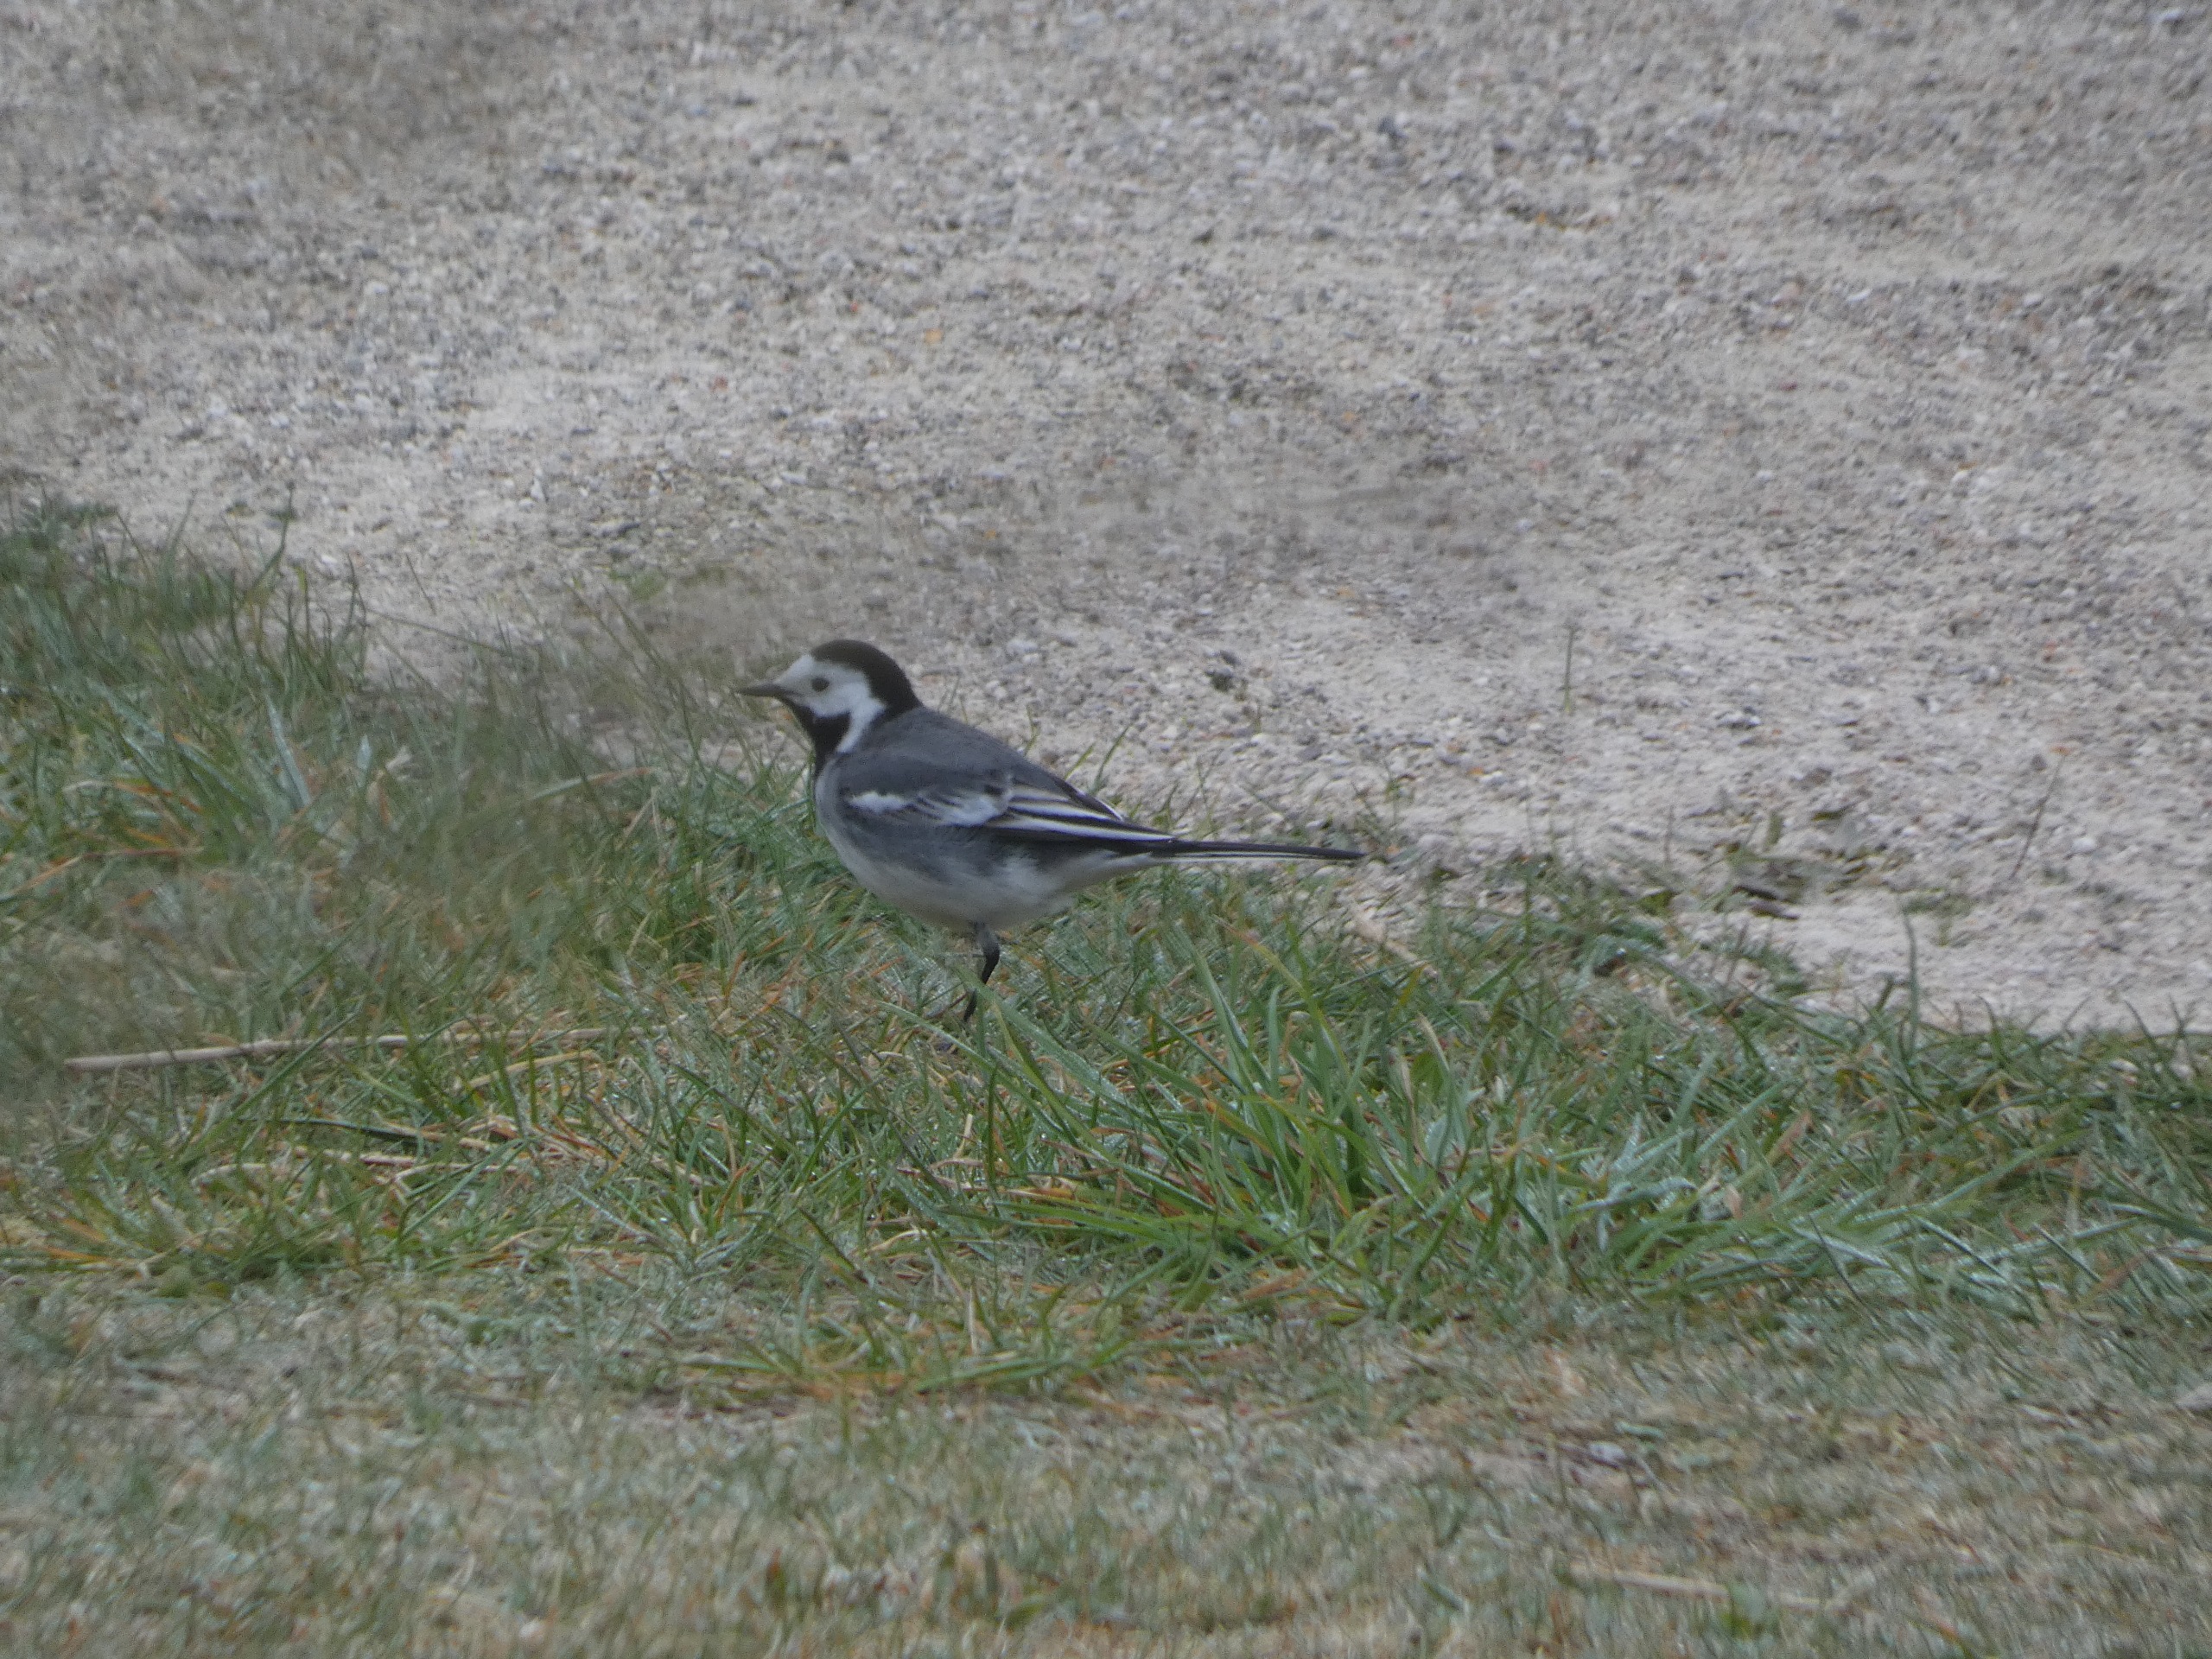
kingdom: Animalia
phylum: Chordata
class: Aves
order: Passeriformes
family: Motacillidae
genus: Motacilla
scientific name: Motacilla alba
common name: Hvid vipstjert
